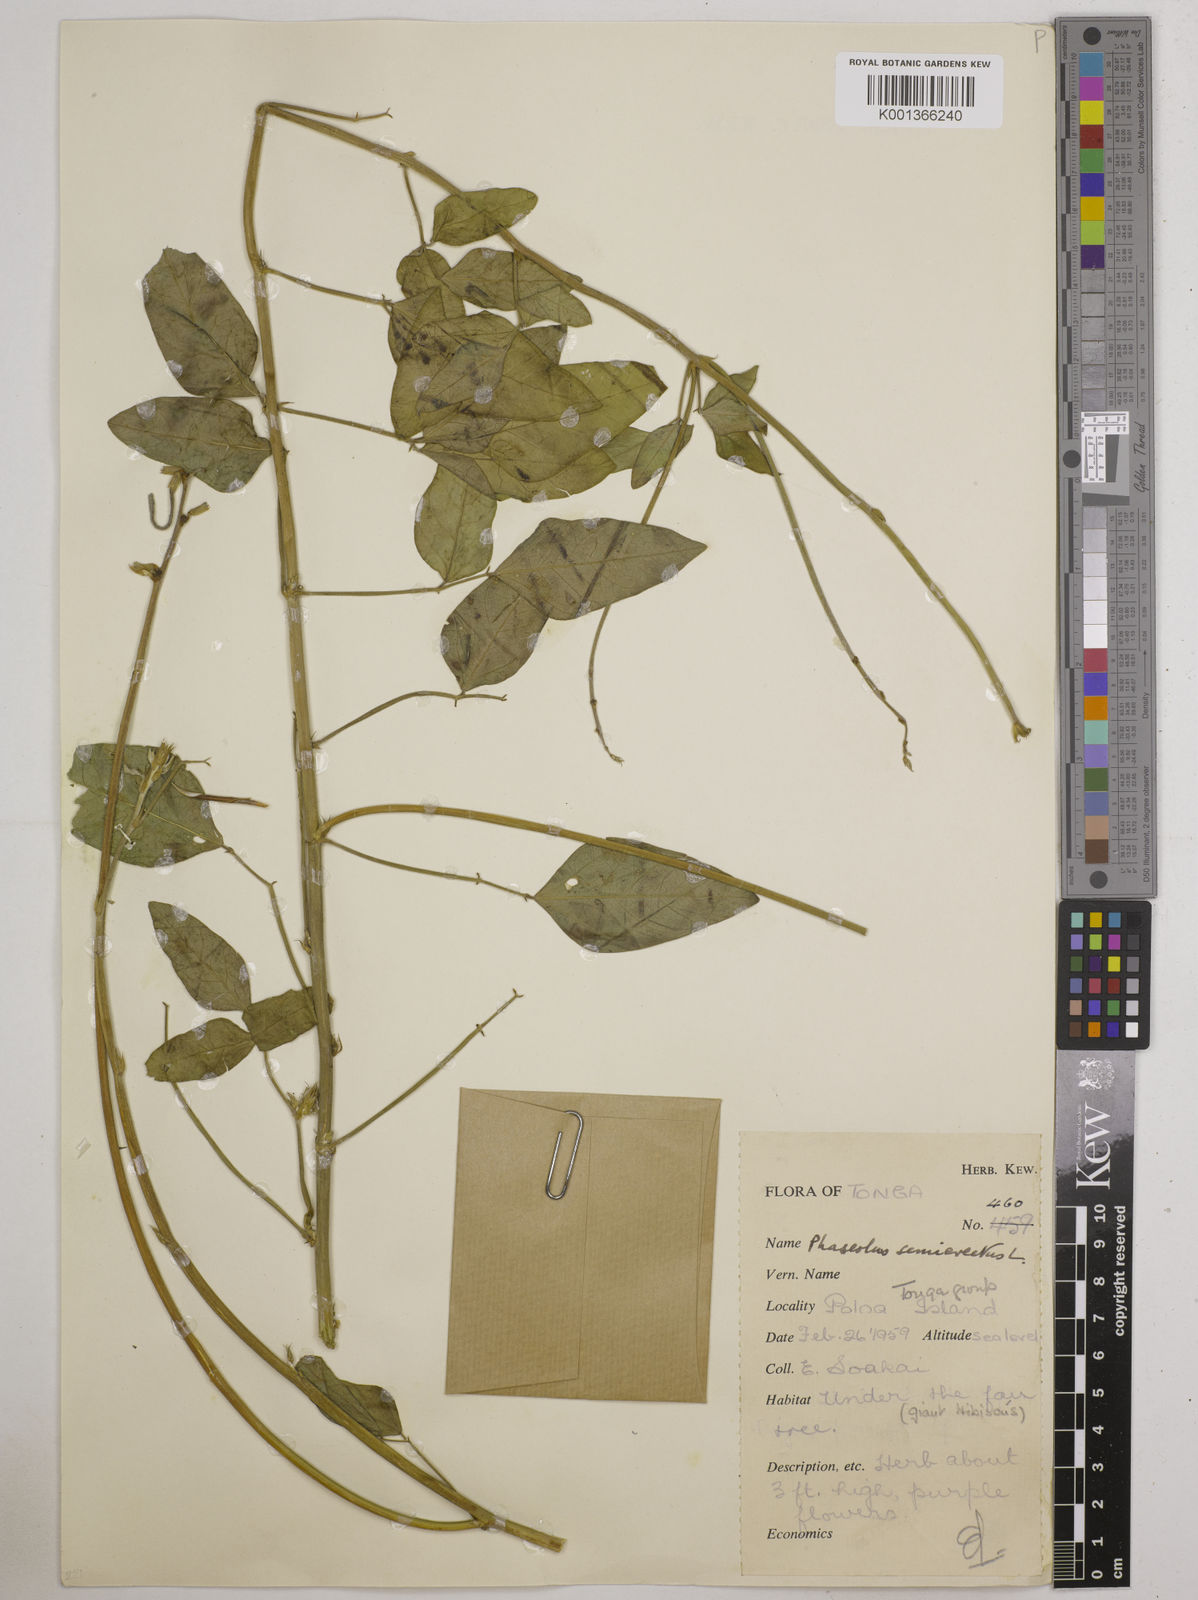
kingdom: Plantae
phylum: Tracheophyta
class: Magnoliopsida
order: Fabales
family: Fabaceae
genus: Macroptilium
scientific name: Macroptilium lathyroides
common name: Wild bushbean
